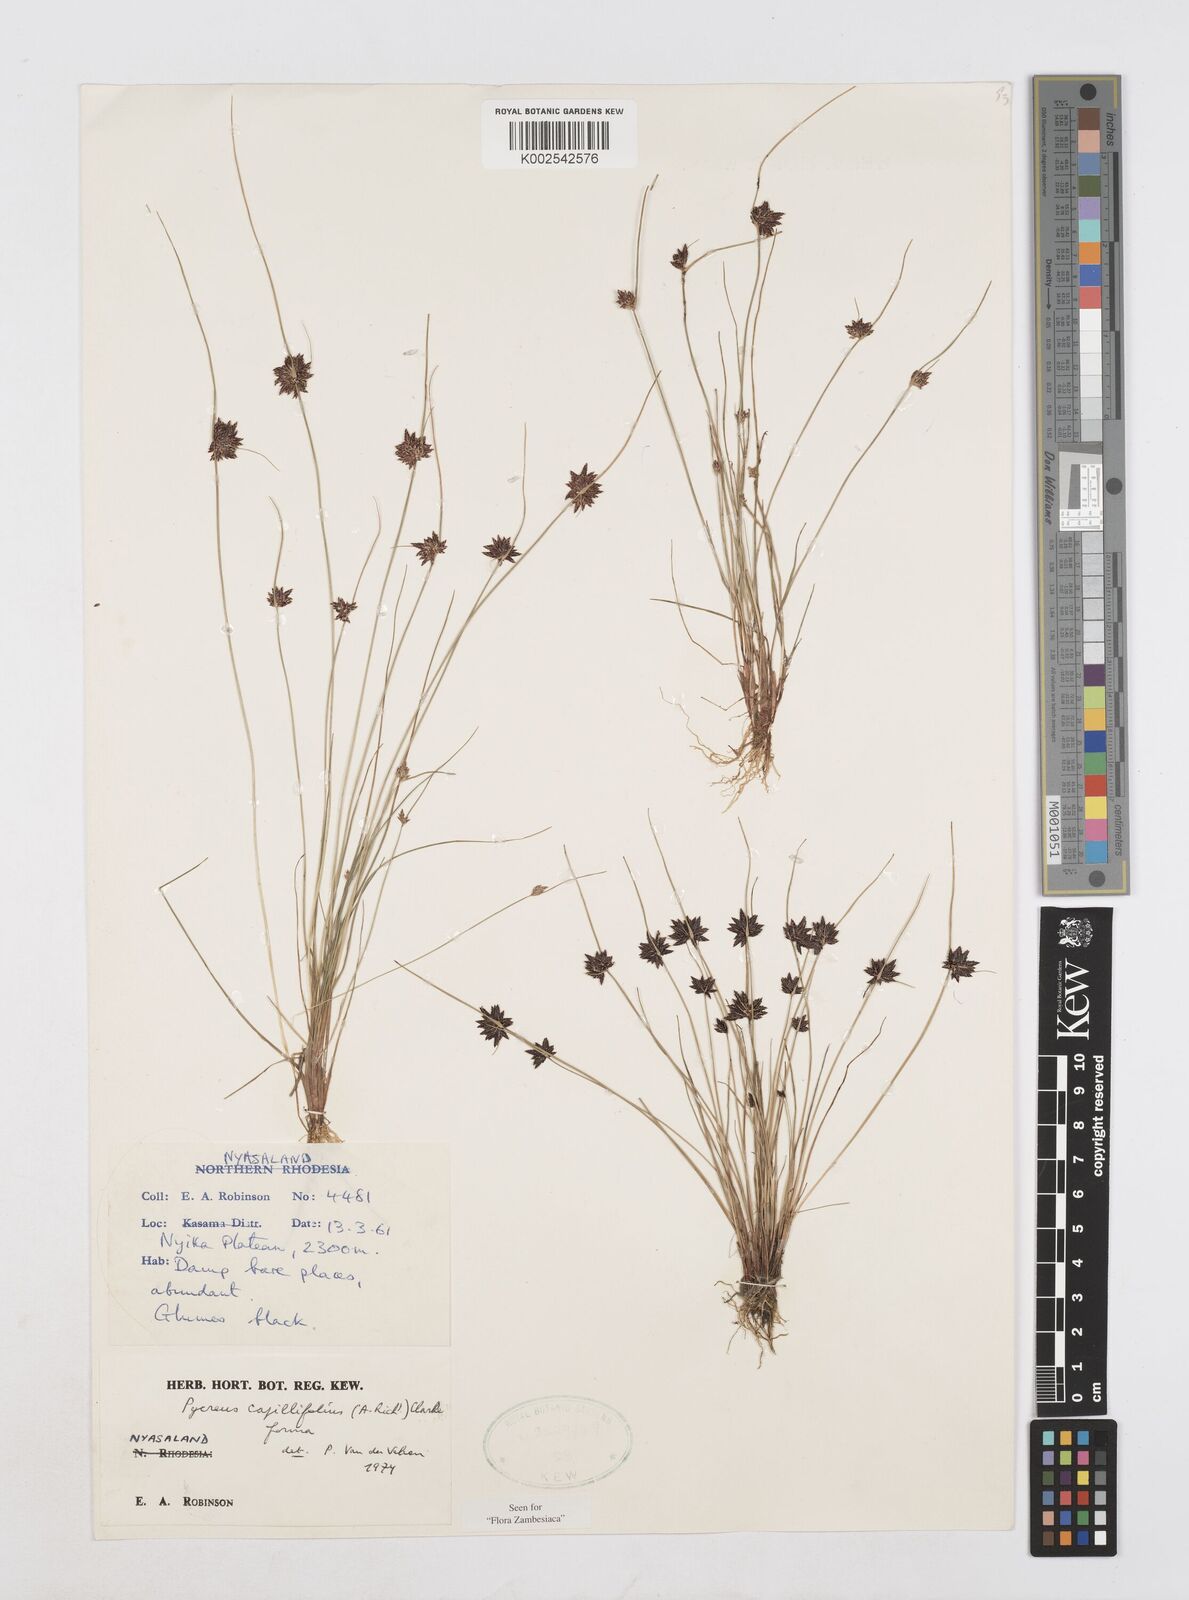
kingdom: Plantae
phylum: Tracheophyta
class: Liliopsida
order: Poales
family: Cyperaceae
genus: Cyperus
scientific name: Cyperus capillifolius
